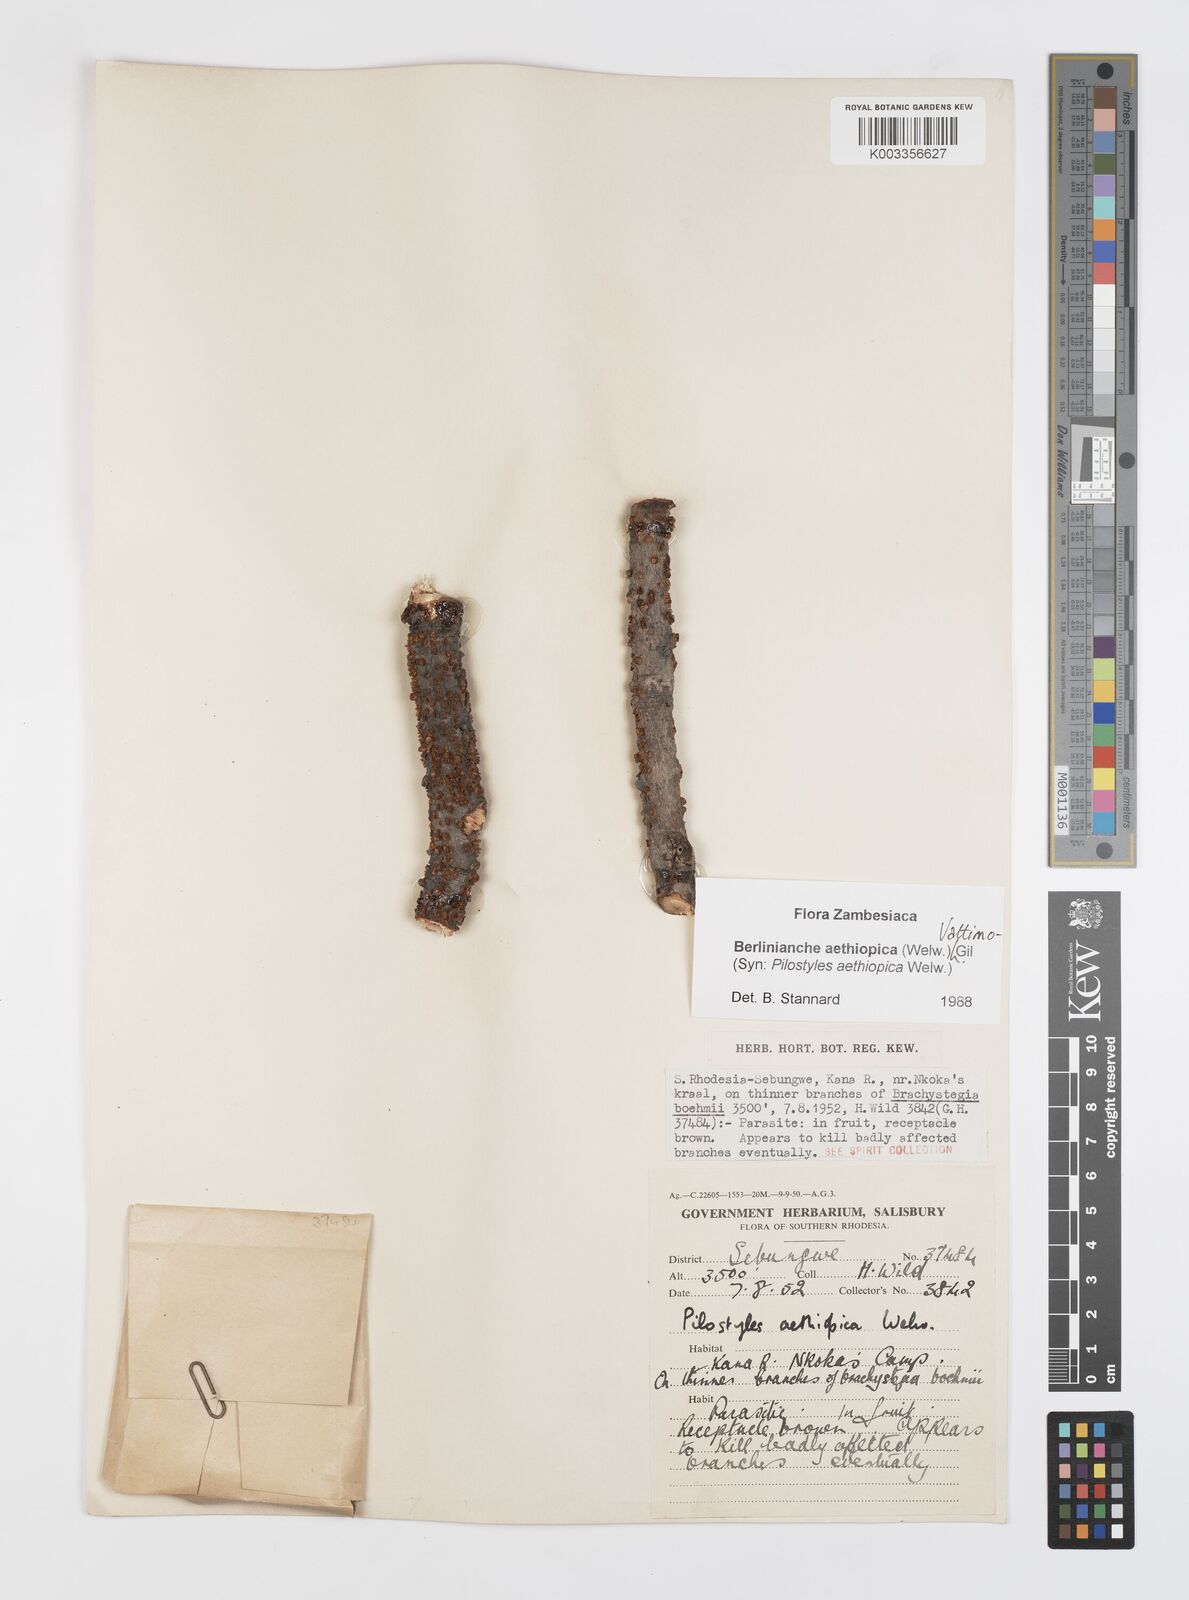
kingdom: Plantae
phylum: Tracheophyta
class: Magnoliopsida
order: Cucurbitales
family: Apodanthaceae
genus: Pilostyles
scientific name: Pilostyles aethiopica
